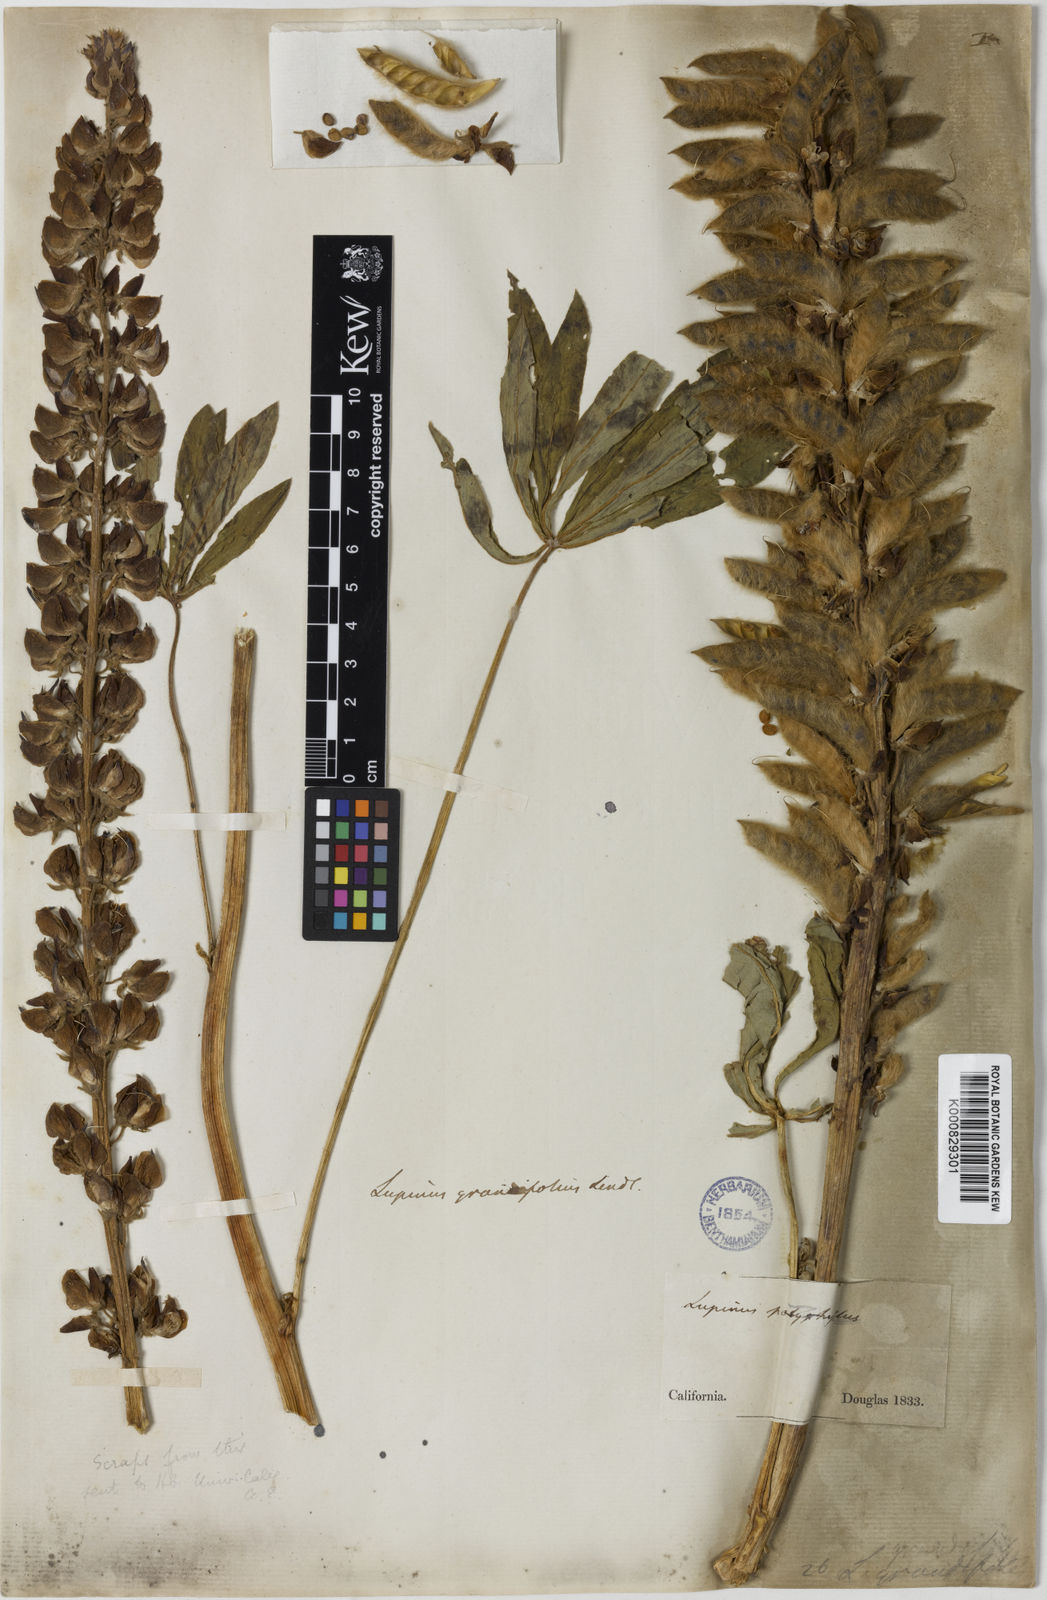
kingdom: Plantae
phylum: Tracheophyta
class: Magnoliopsida
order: Fabales
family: Fabaceae
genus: Lupinus
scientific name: Lupinus polyphyllus
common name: Garden lupin
